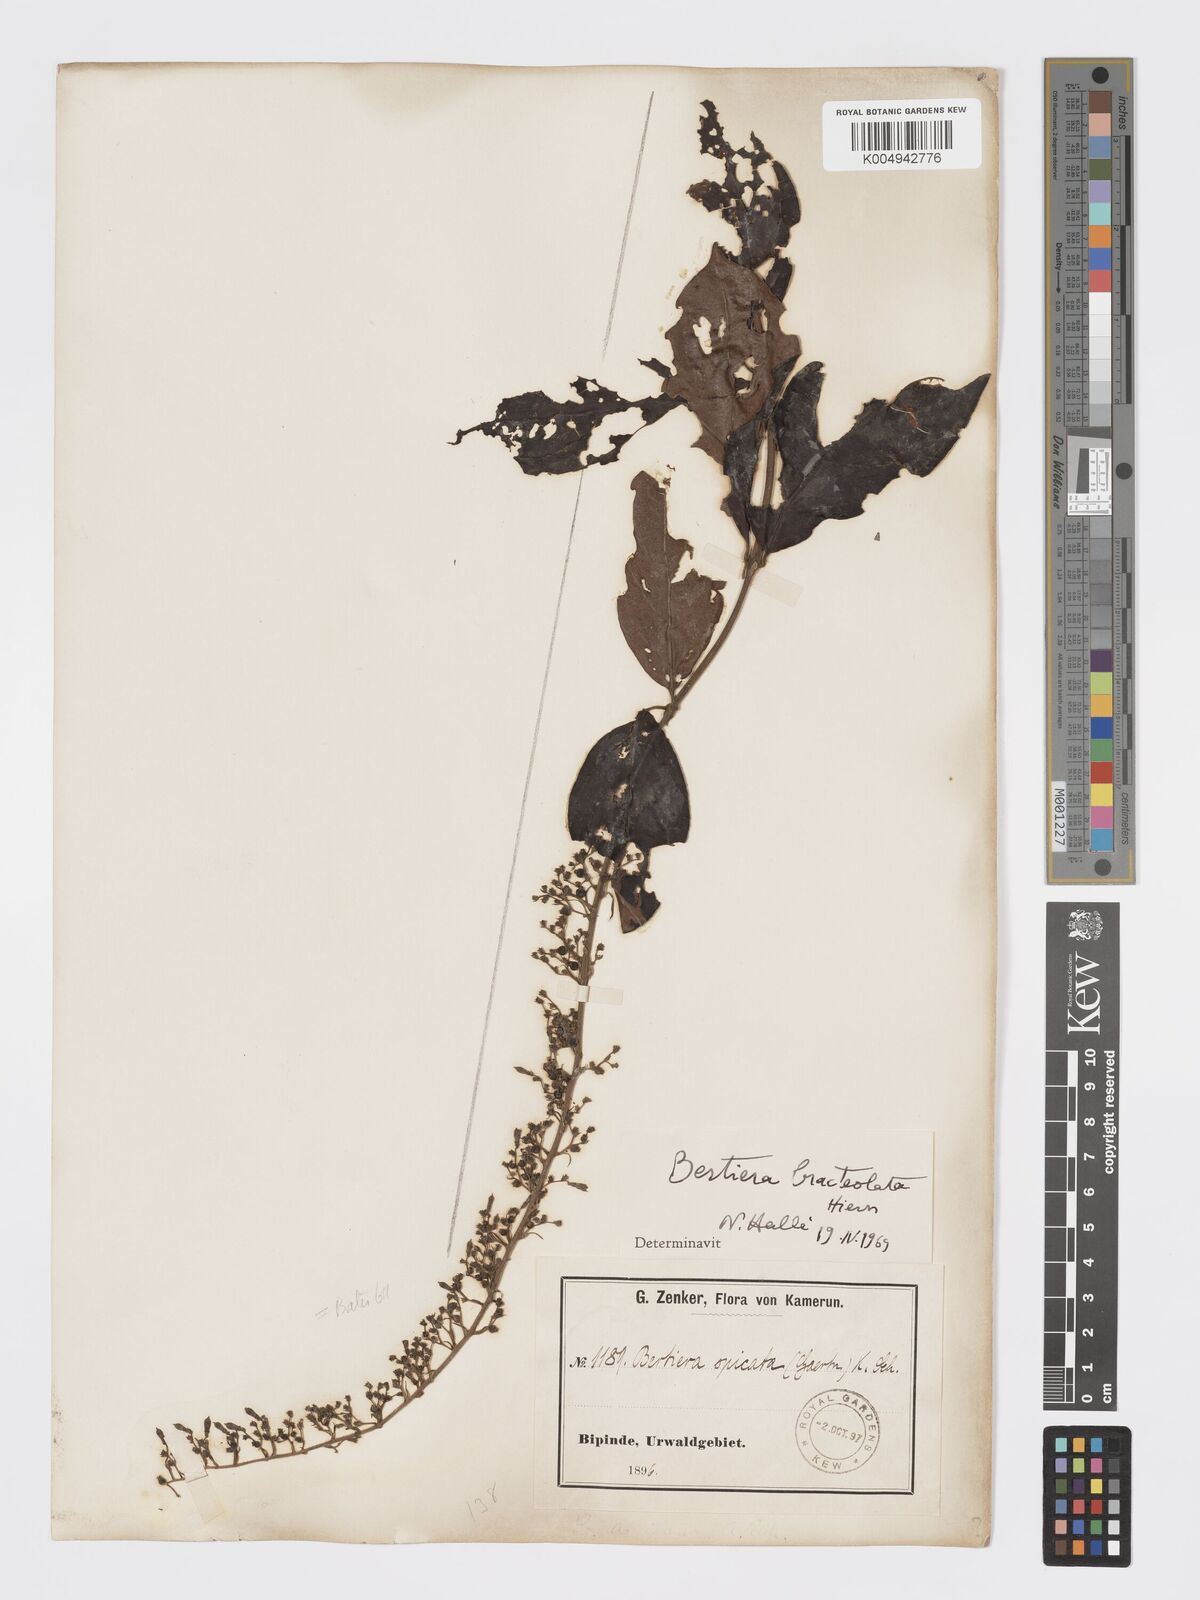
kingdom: Plantae
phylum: Tracheophyta
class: Magnoliopsida
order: Gentianales
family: Rubiaceae
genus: Bertiera
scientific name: Bertiera bracteolata
